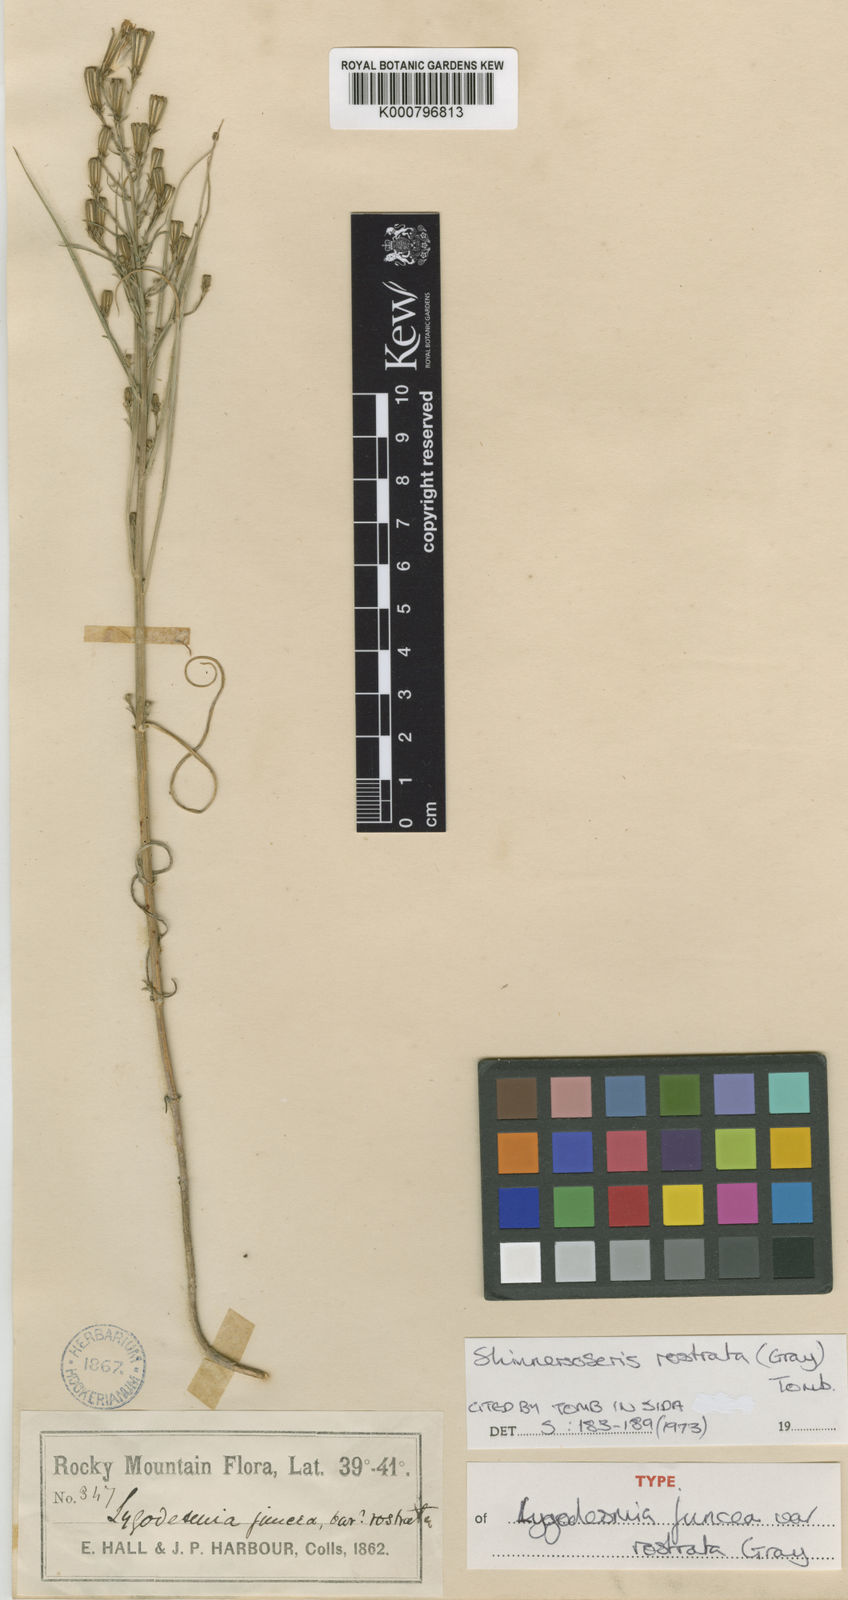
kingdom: Plantae
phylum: Tracheophyta
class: Magnoliopsida
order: Asterales
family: Asteraceae
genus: Shinnersoseris
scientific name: Shinnersoseris rostrata
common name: Annual skeleton-weed
